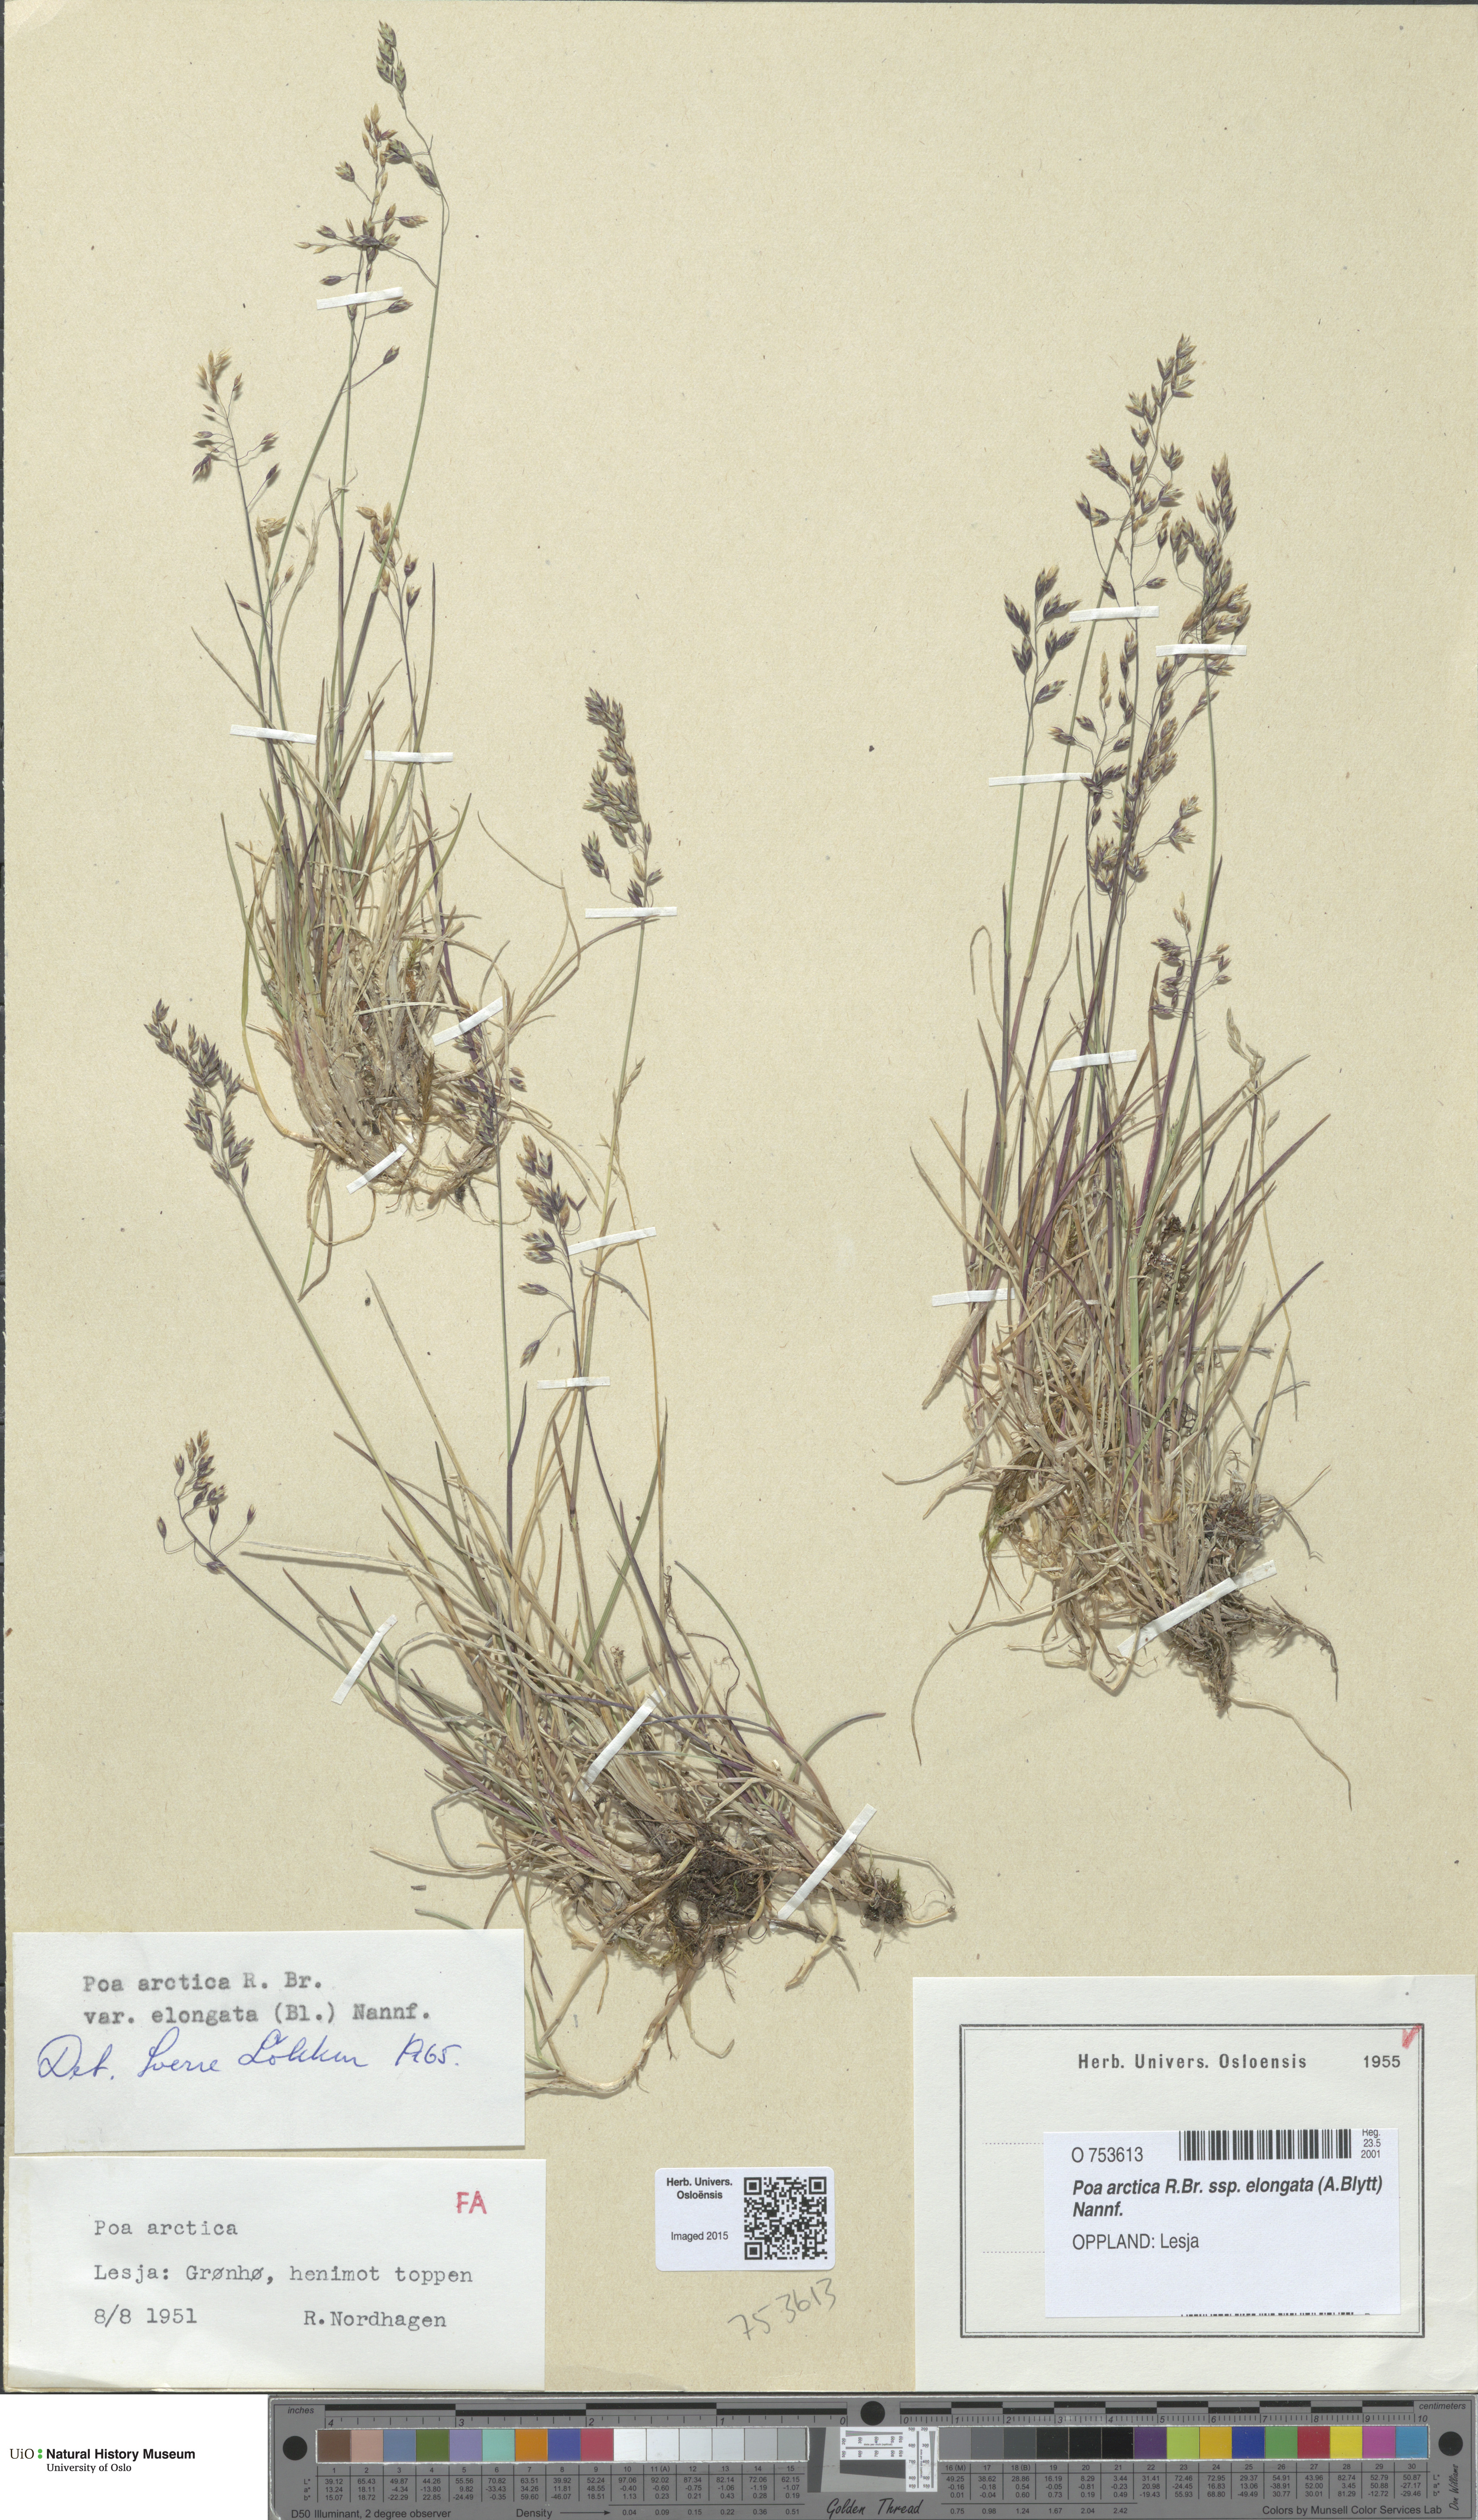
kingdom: Plantae
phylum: Tracheophyta
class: Liliopsida
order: Poales
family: Poaceae
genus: Poa
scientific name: Poa arctica
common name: Arctic bluegrass
